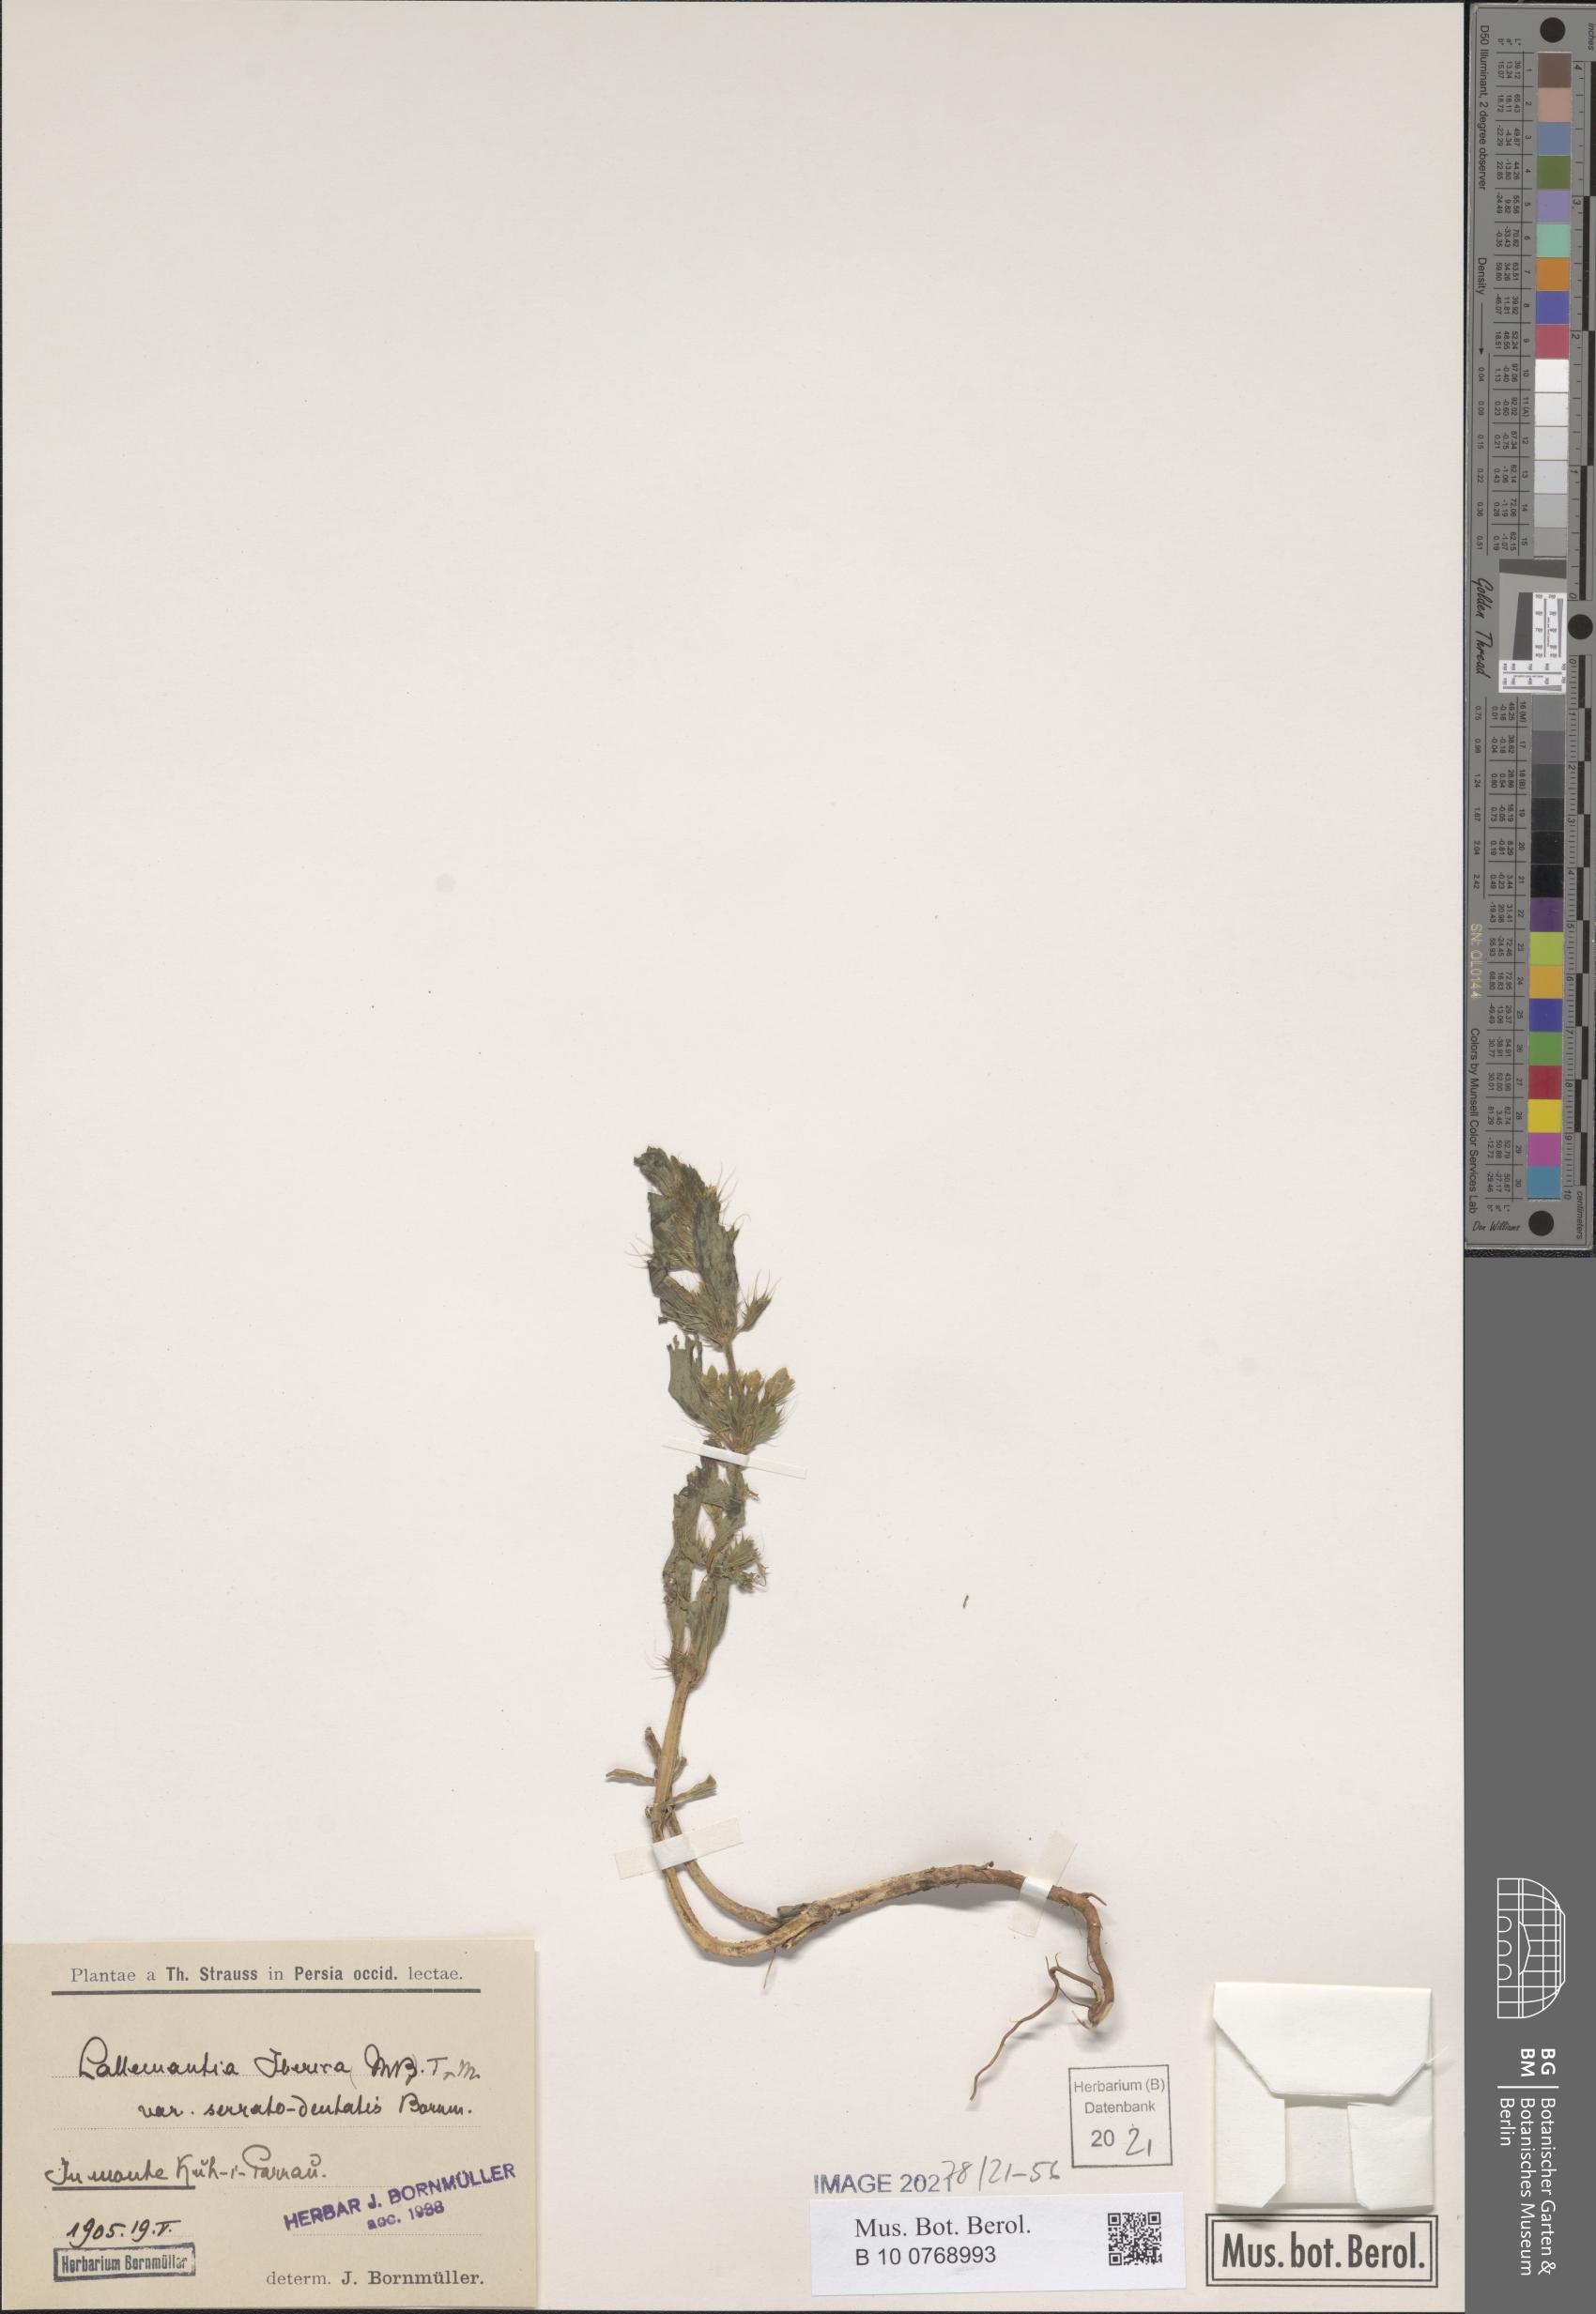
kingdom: Plantae
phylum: Tracheophyta
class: Magnoliopsida
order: Lamiales
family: Lamiaceae
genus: Lallemantia
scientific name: Lallemantia iberica
